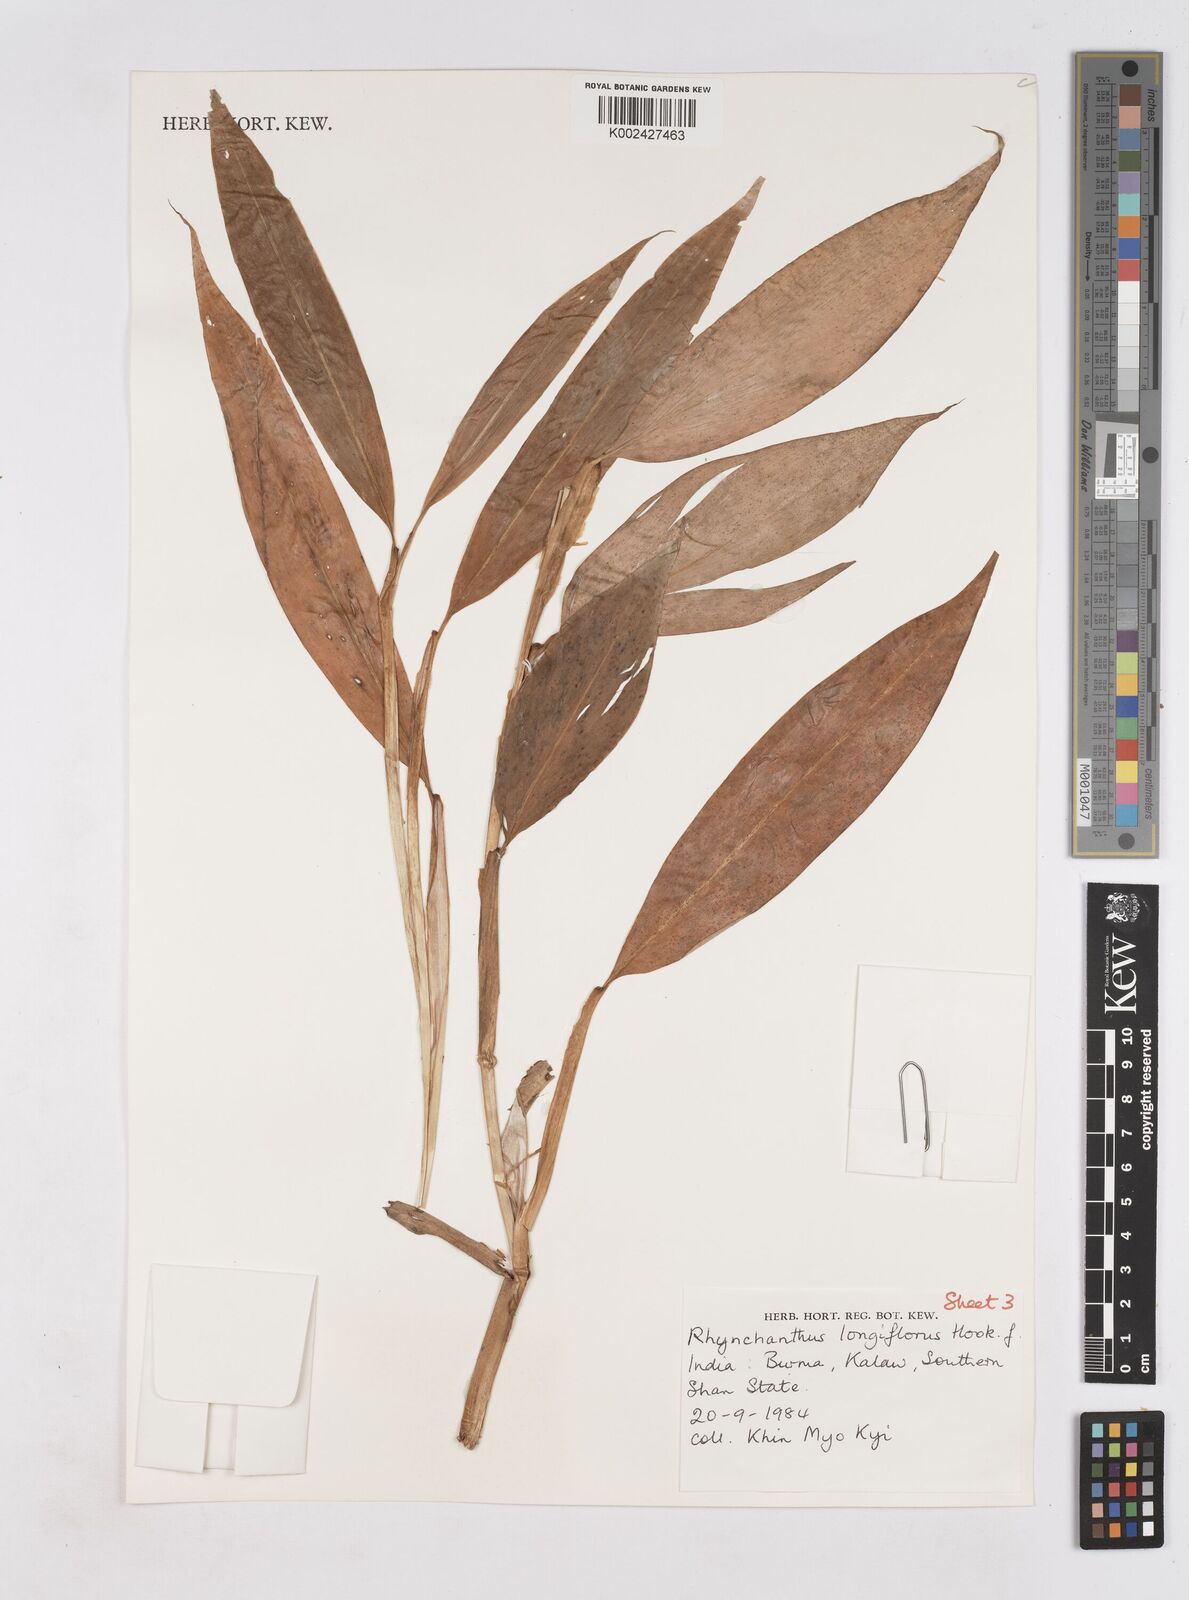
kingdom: Plantae
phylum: Tracheophyta
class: Liliopsida
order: Zingiberales
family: Zingiberaceae
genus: Rhynchanthus
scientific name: Rhynchanthus longiflorus
